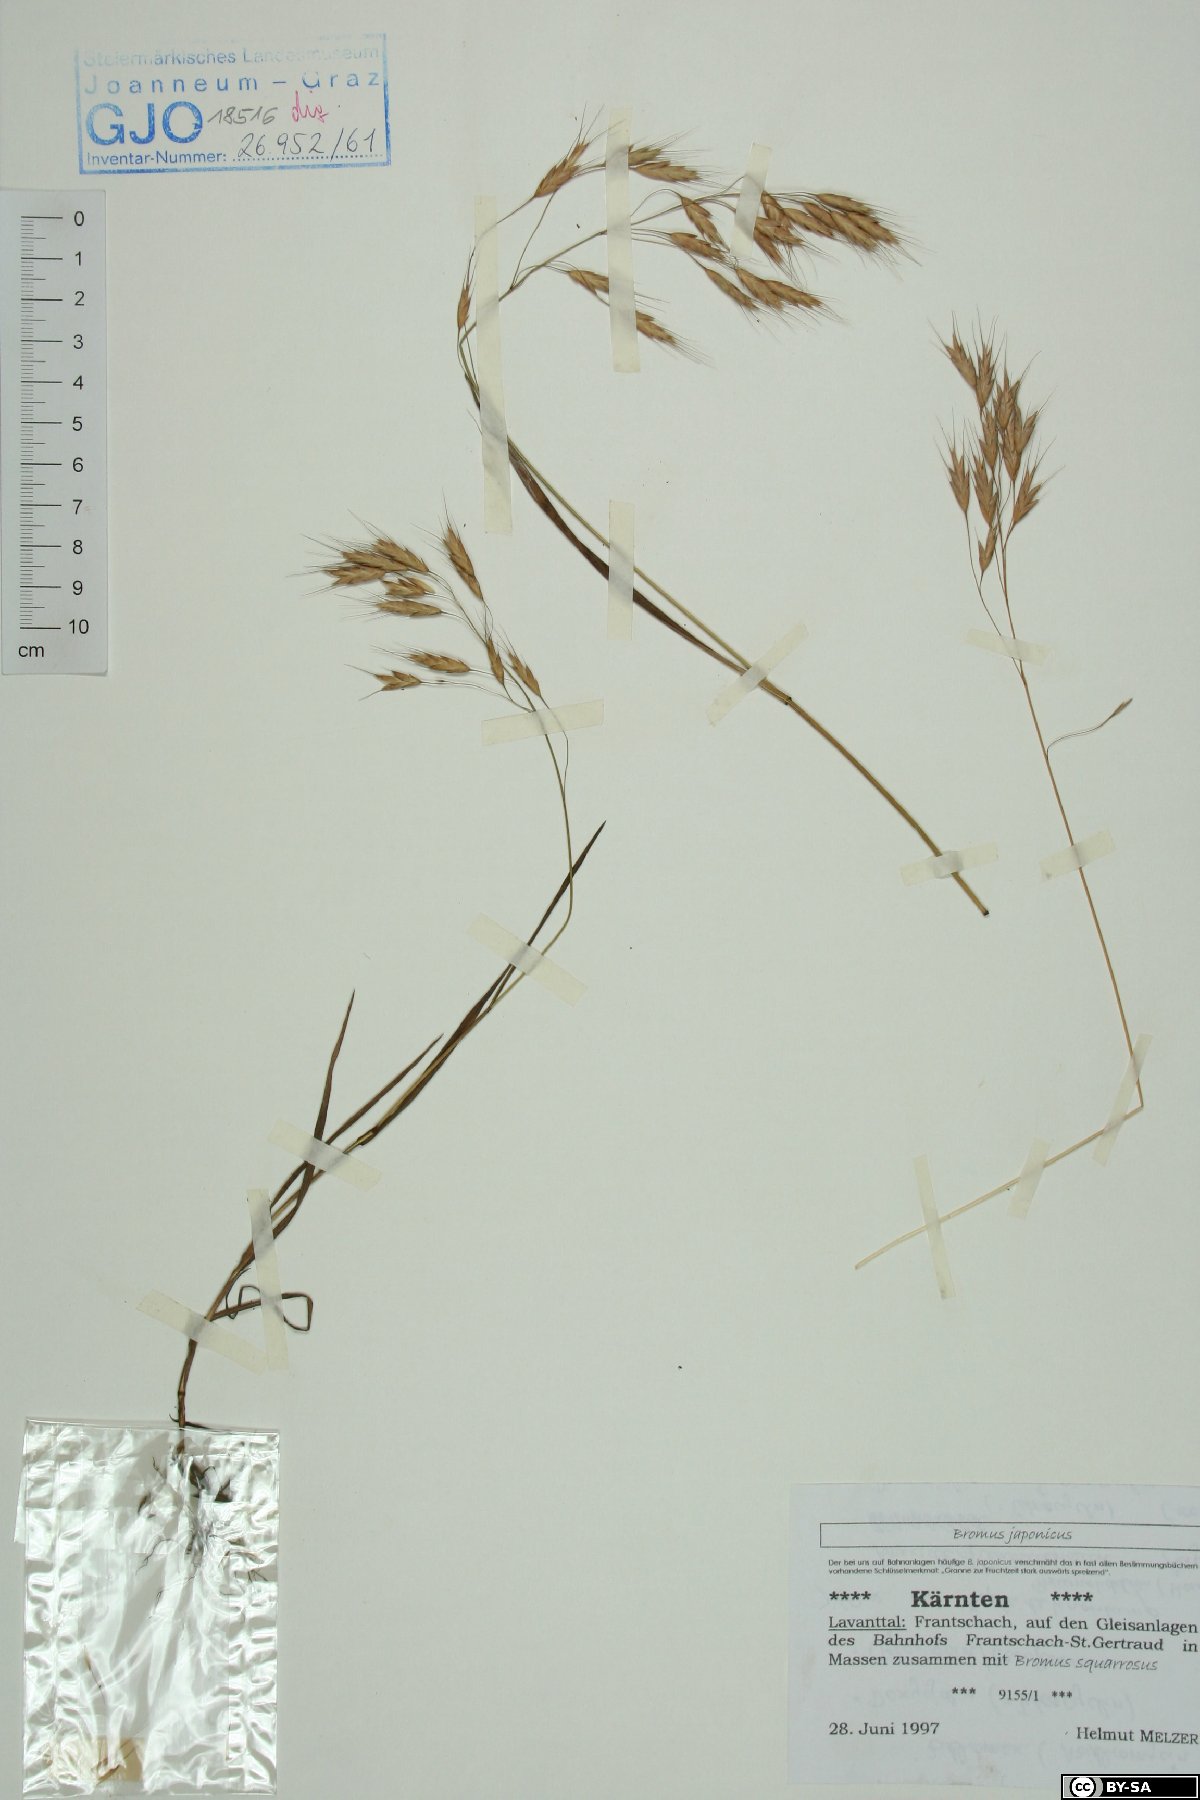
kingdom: Plantae
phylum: Tracheophyta
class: Liliopsida
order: Poales
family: Poaceae
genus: Bromus
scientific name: Bromus japonicus
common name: Japanese brome
